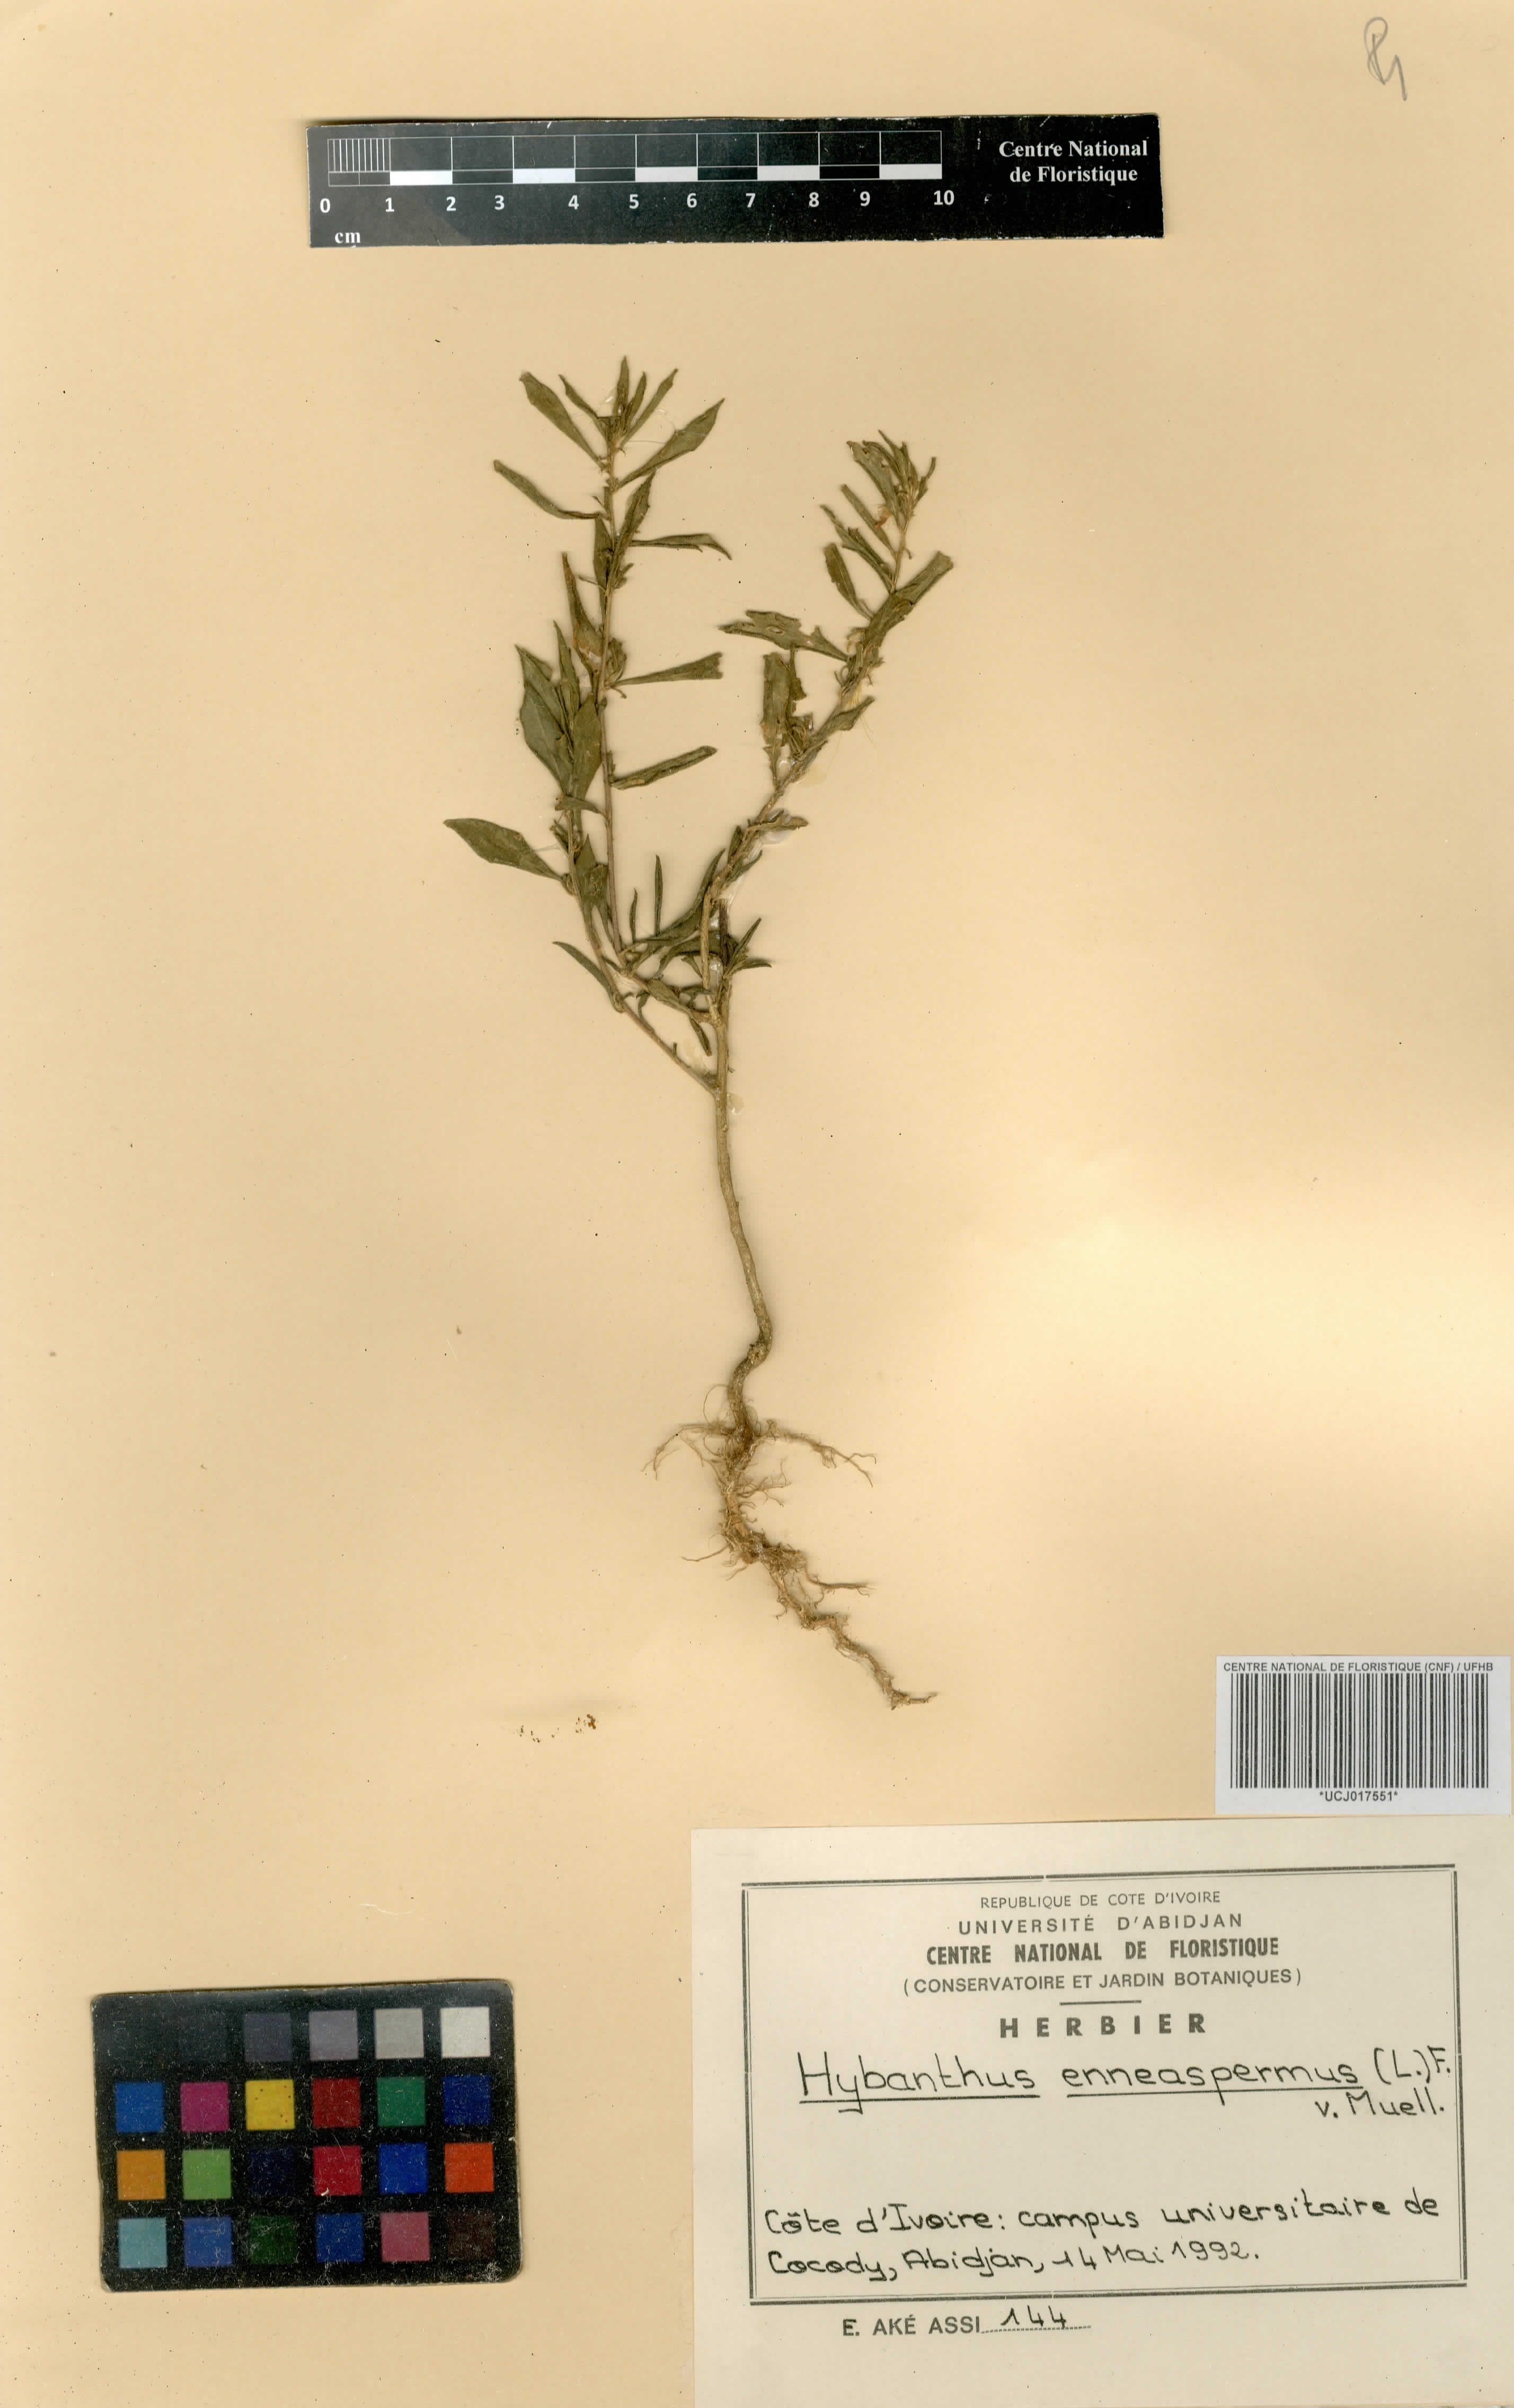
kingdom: Plantae
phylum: Tracheophyta
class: Magnoliopsida
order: Malpighiales
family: Violaceae
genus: Pigea
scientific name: Pigea enneasperma
